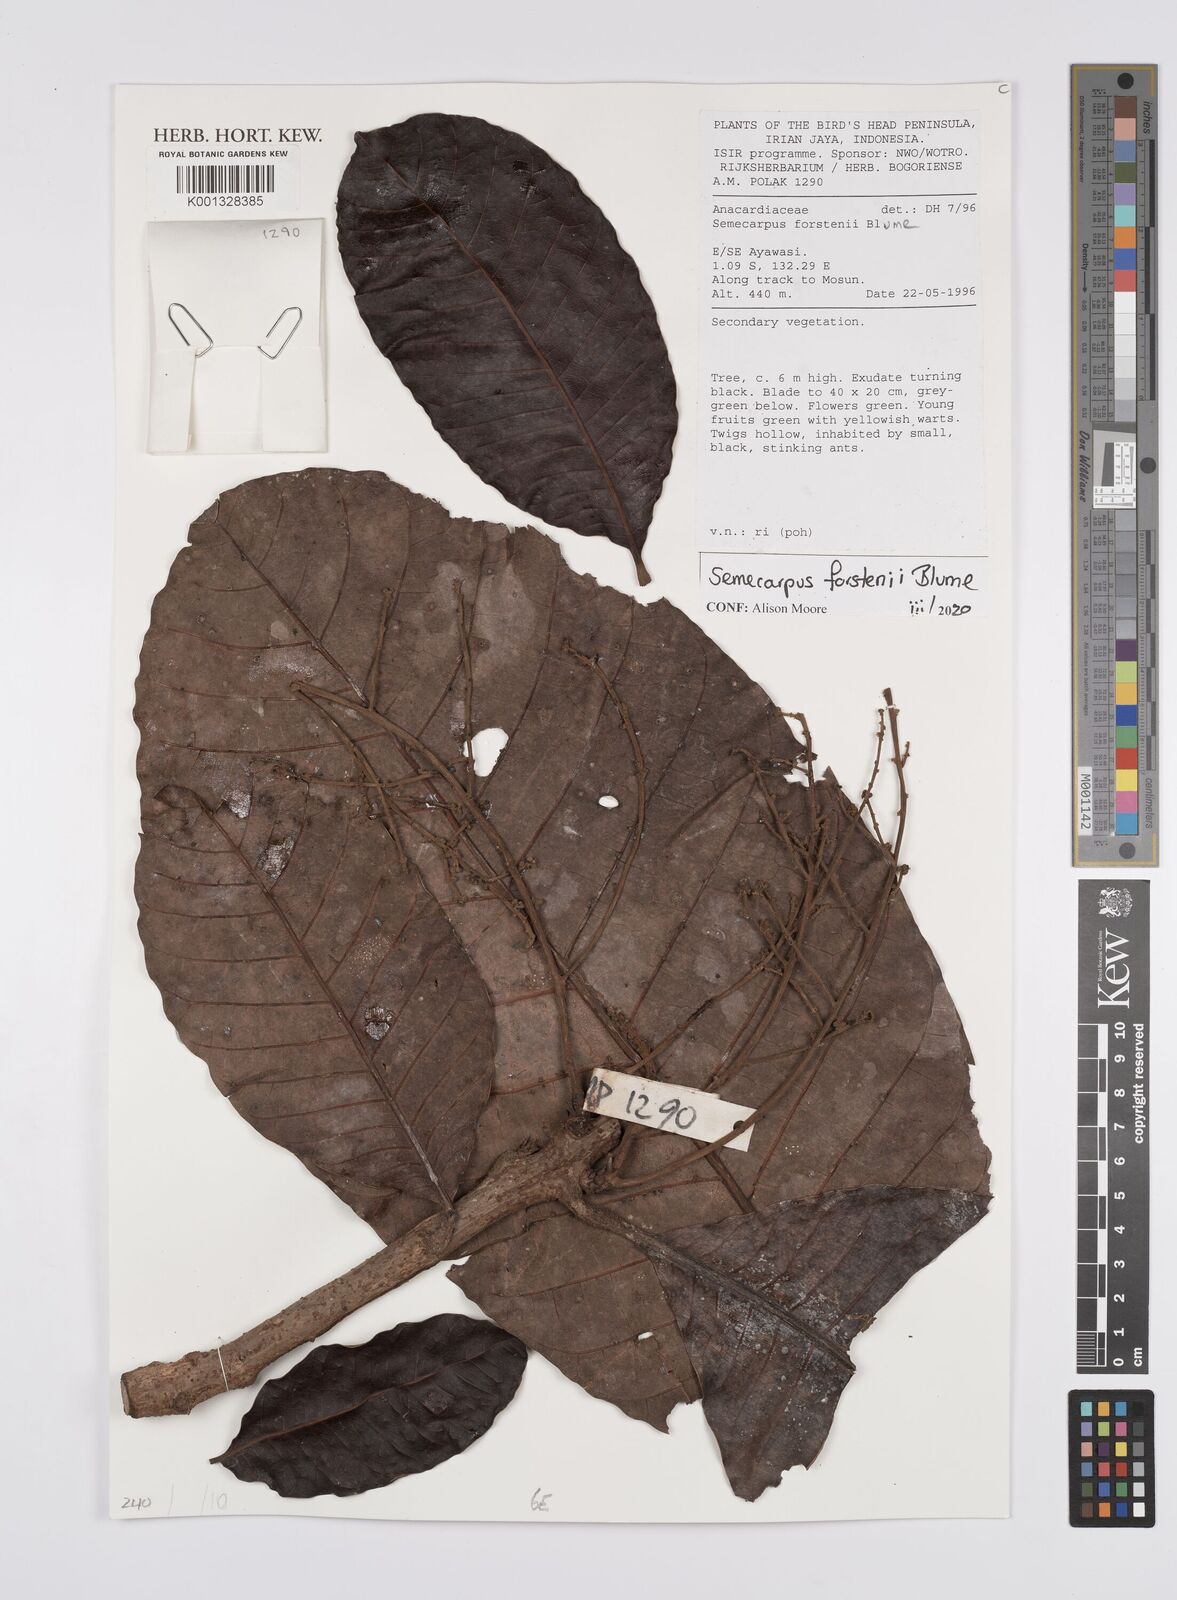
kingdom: Plantae
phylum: Tracheophyta
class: Magnoliopsida
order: Sapindales
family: Anacardiaceae
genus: Semecarpus
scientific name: Semecarpus forstenii
